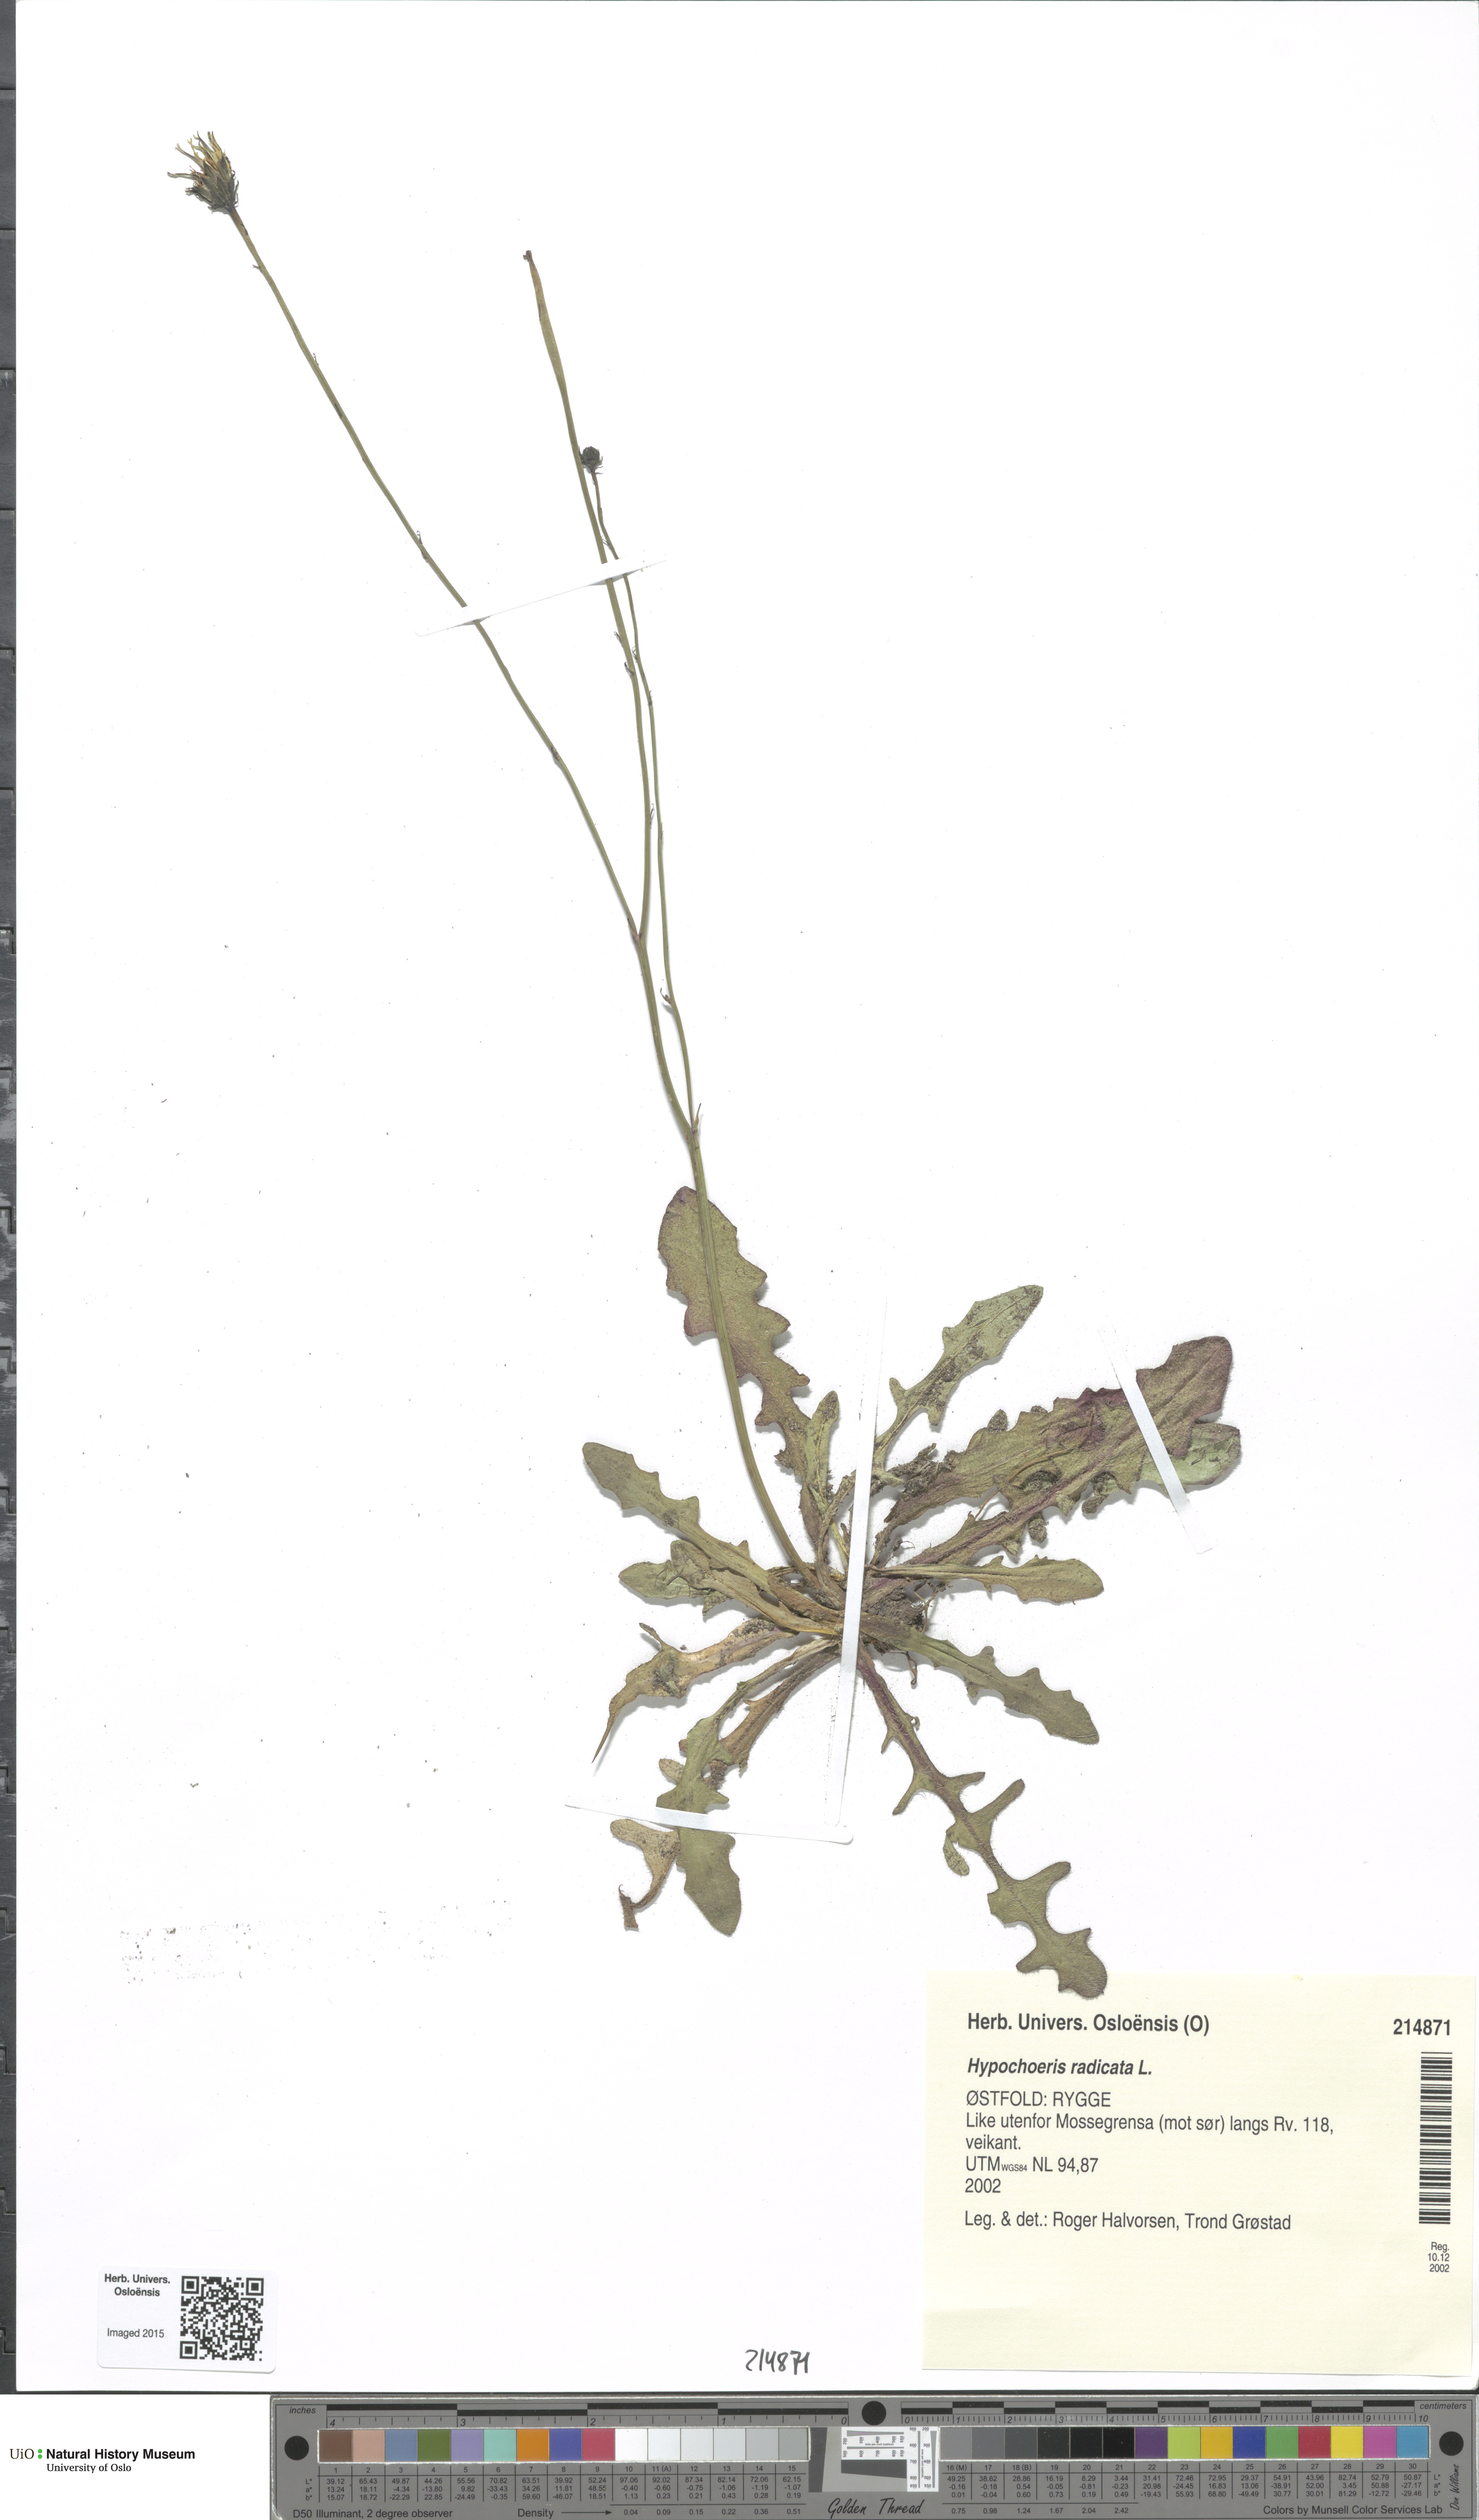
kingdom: Plantae
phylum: Tracheophyta
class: Magnoliopsida
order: Asterales
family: Asteraceae
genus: Hypochaeris
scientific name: Hypochaeris radicata
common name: Flatweed
